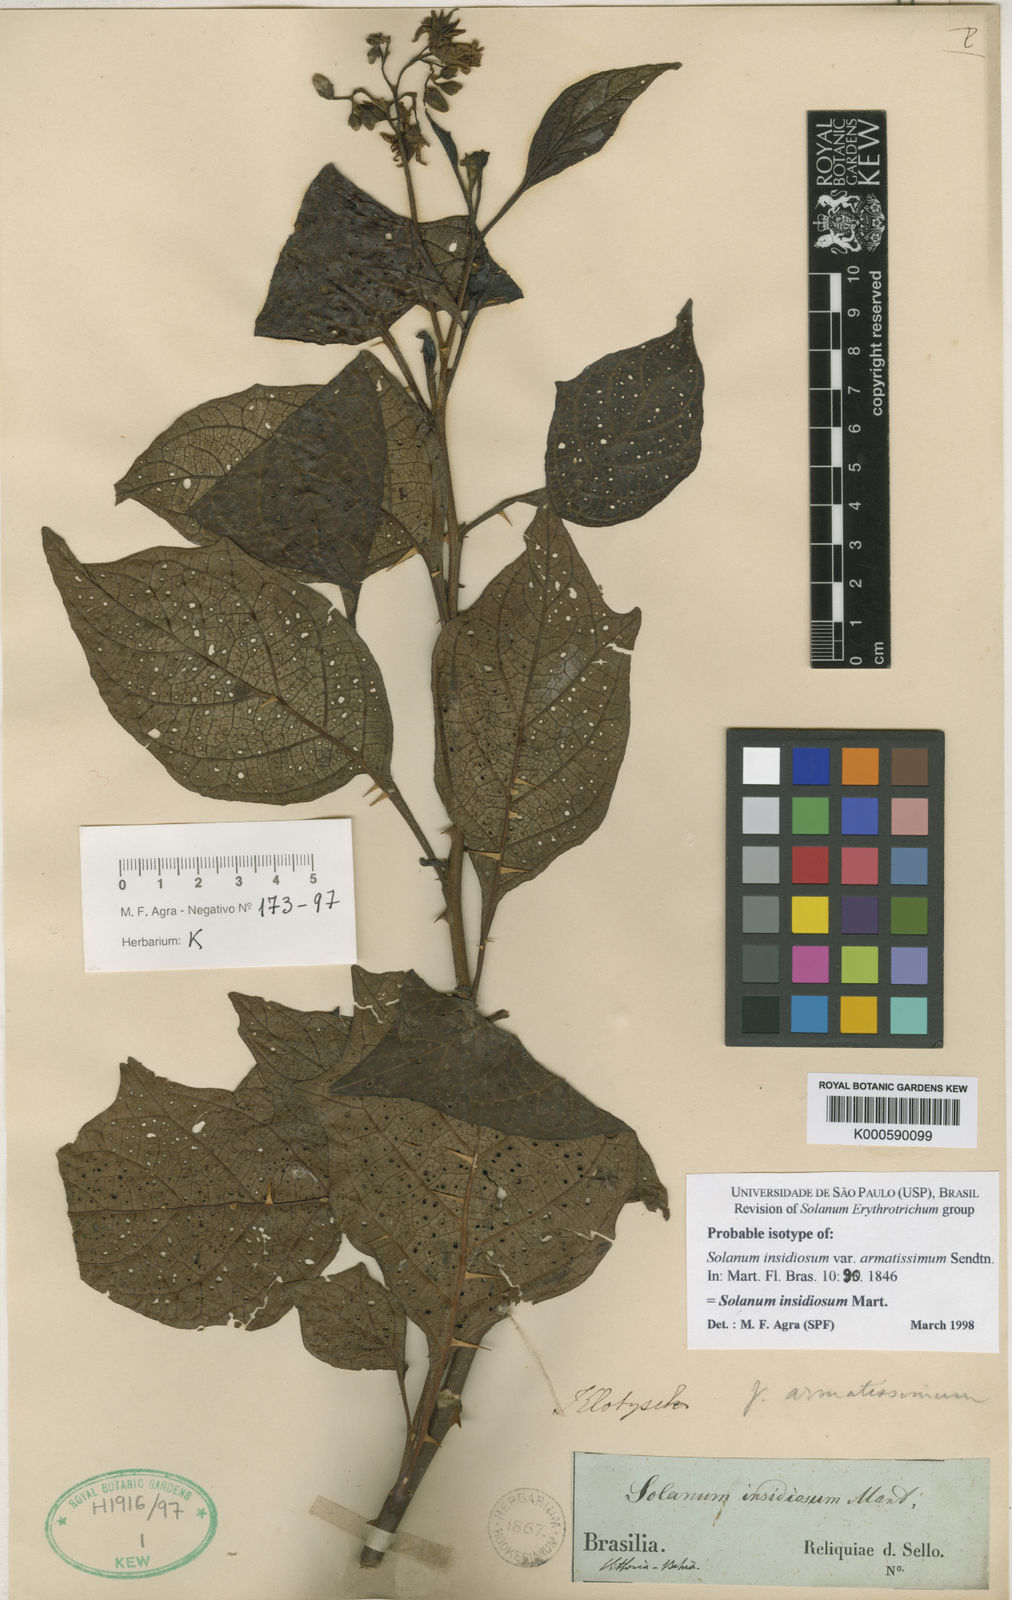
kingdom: Plantae
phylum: Tracheophyta
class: Magnoliopsida
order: Solanales
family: Solanaceae
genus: Solanum
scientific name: Solanum insidiosum
